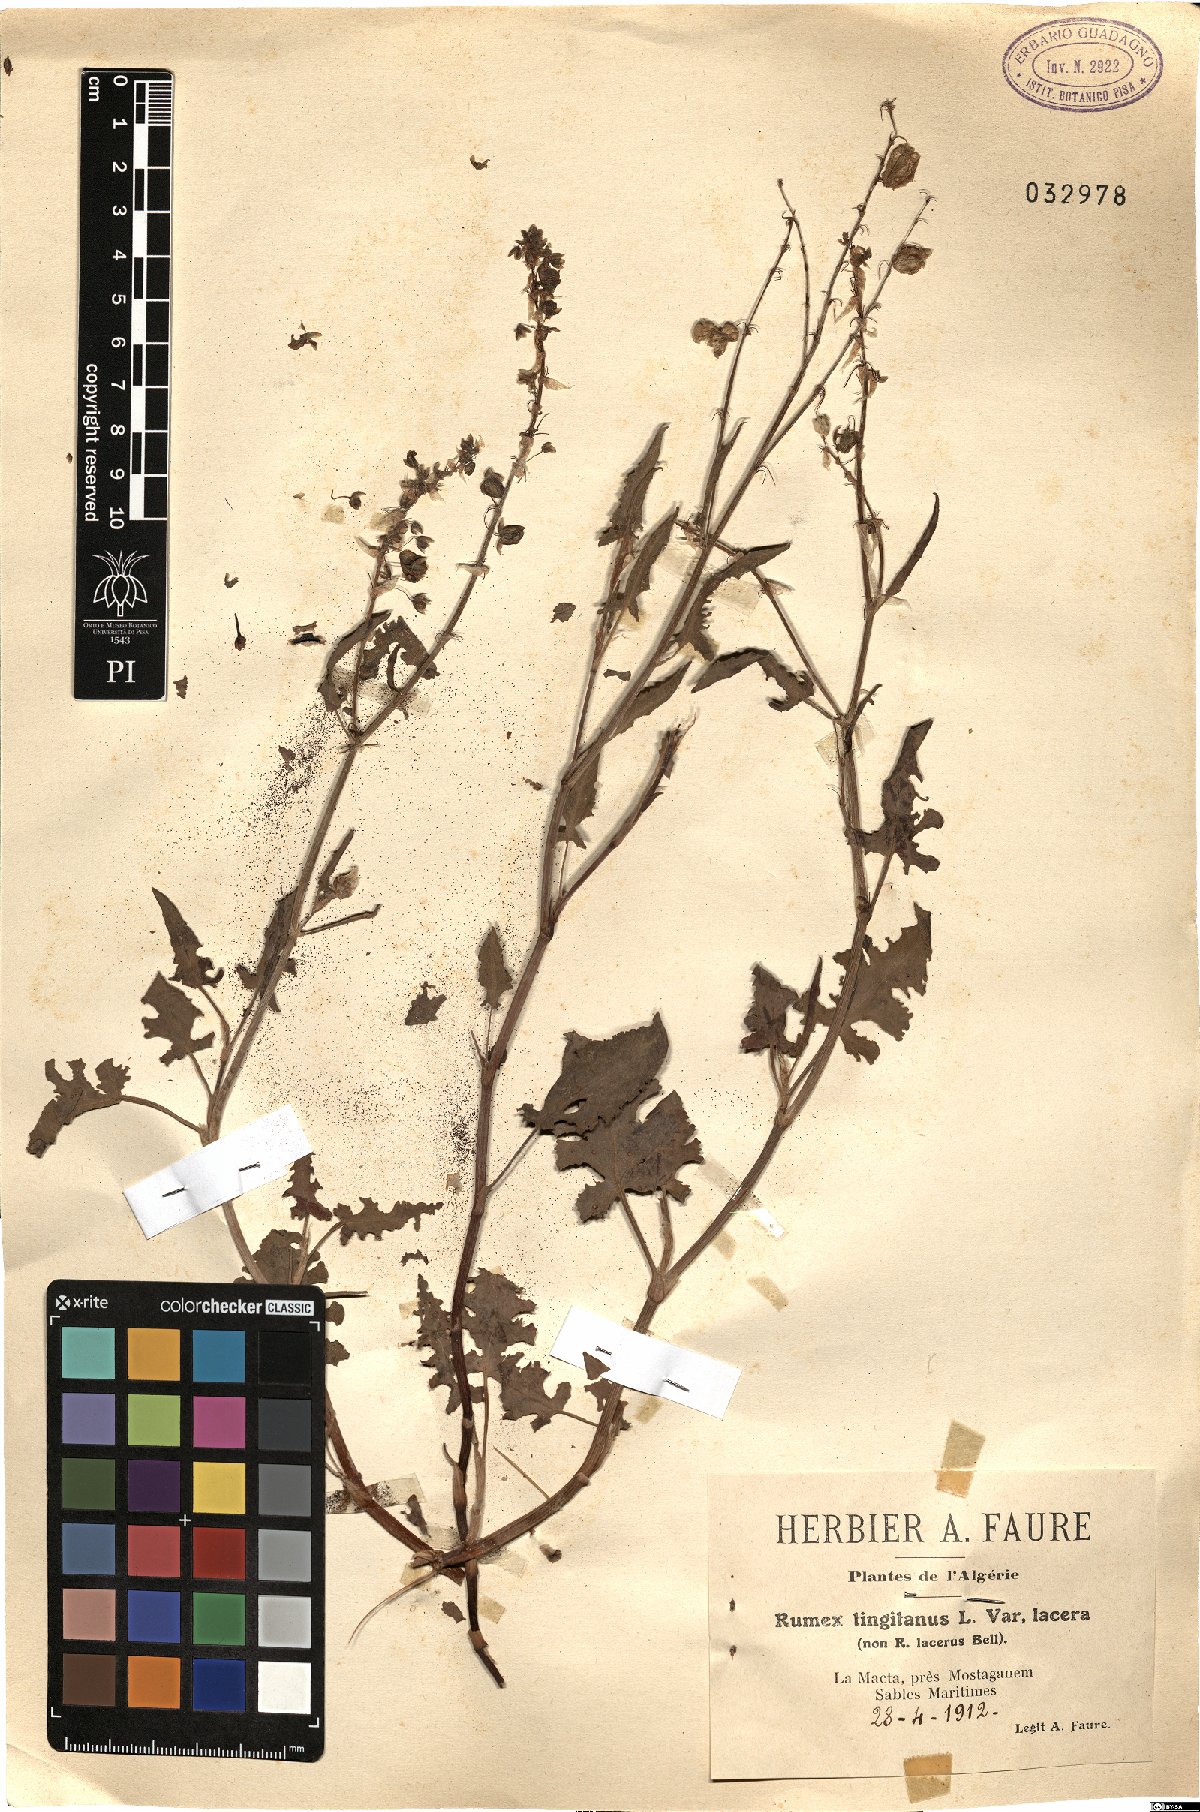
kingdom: Plantae
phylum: Tracheophyta
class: Magnoliopsida
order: Caryophyllales
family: Polygonaceae
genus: Rumex
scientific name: Rumex roseus
